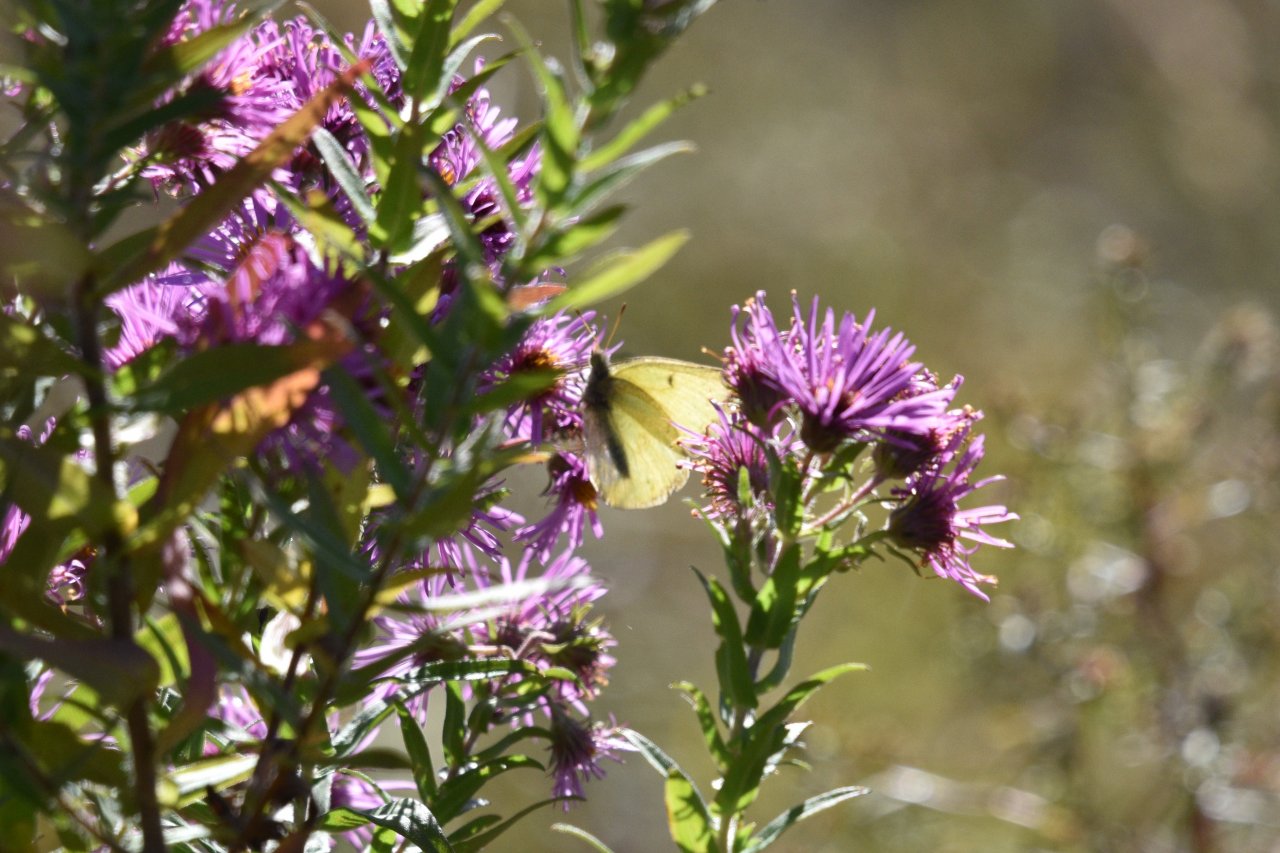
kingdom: Animalia
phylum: Arthropoda
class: Insecta
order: Lepidoptera
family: Pieridae
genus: Colias
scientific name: Colias philodice
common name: Clouded Sulphur
